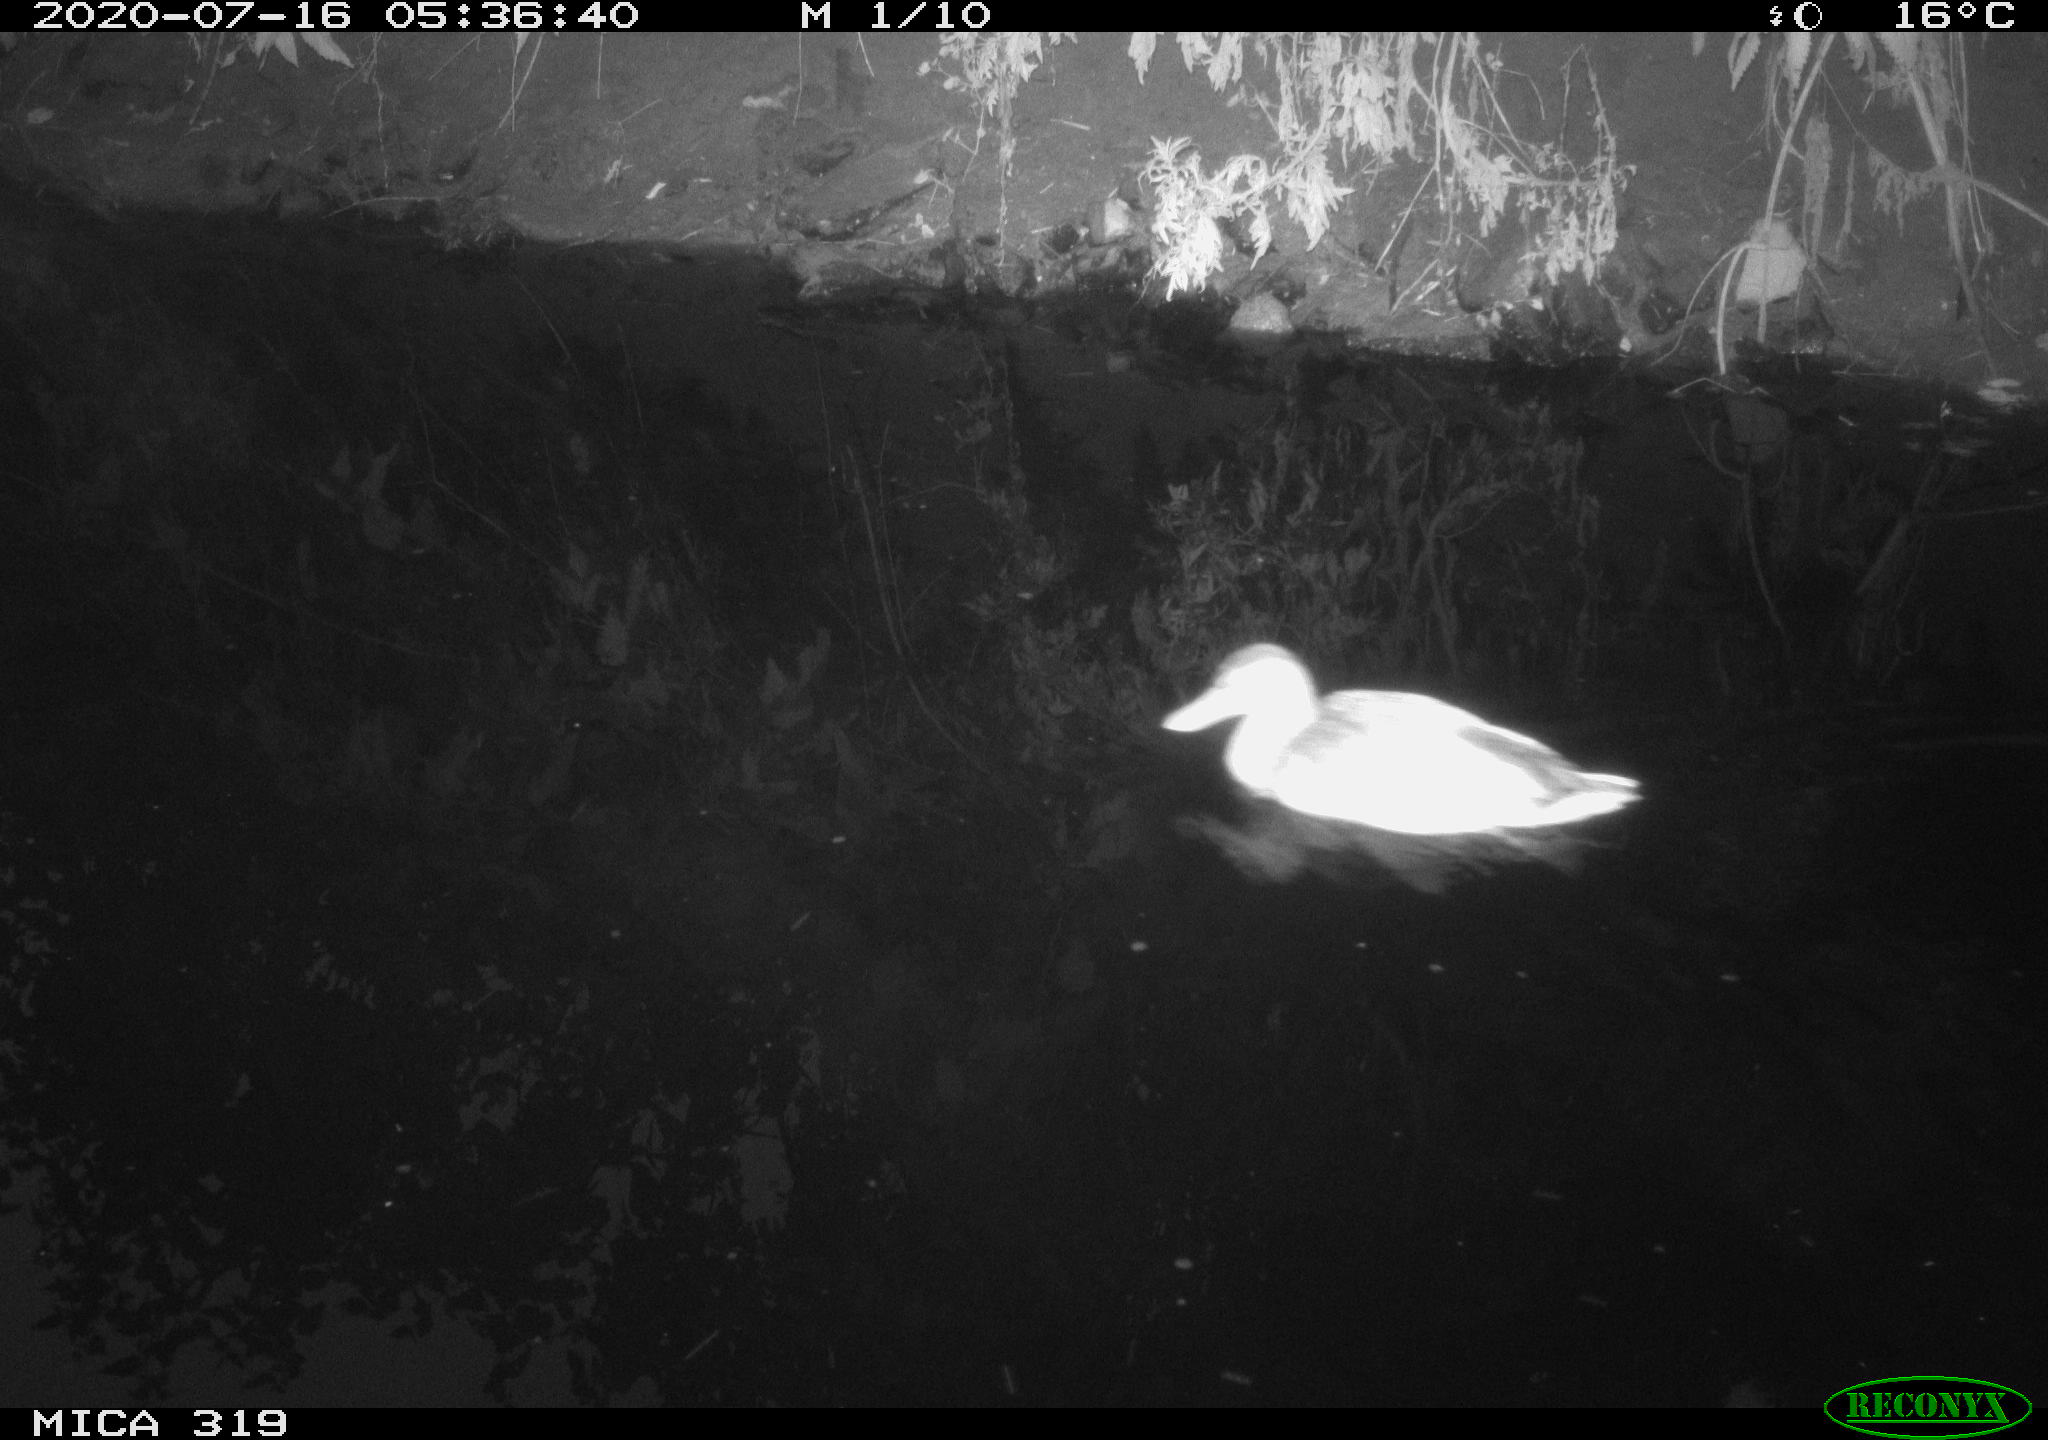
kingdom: Animalia
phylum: Chordata
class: Aves
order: Anseriformes
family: Anatidae
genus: Anas
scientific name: Anas platyrhynchos
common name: Mallard
